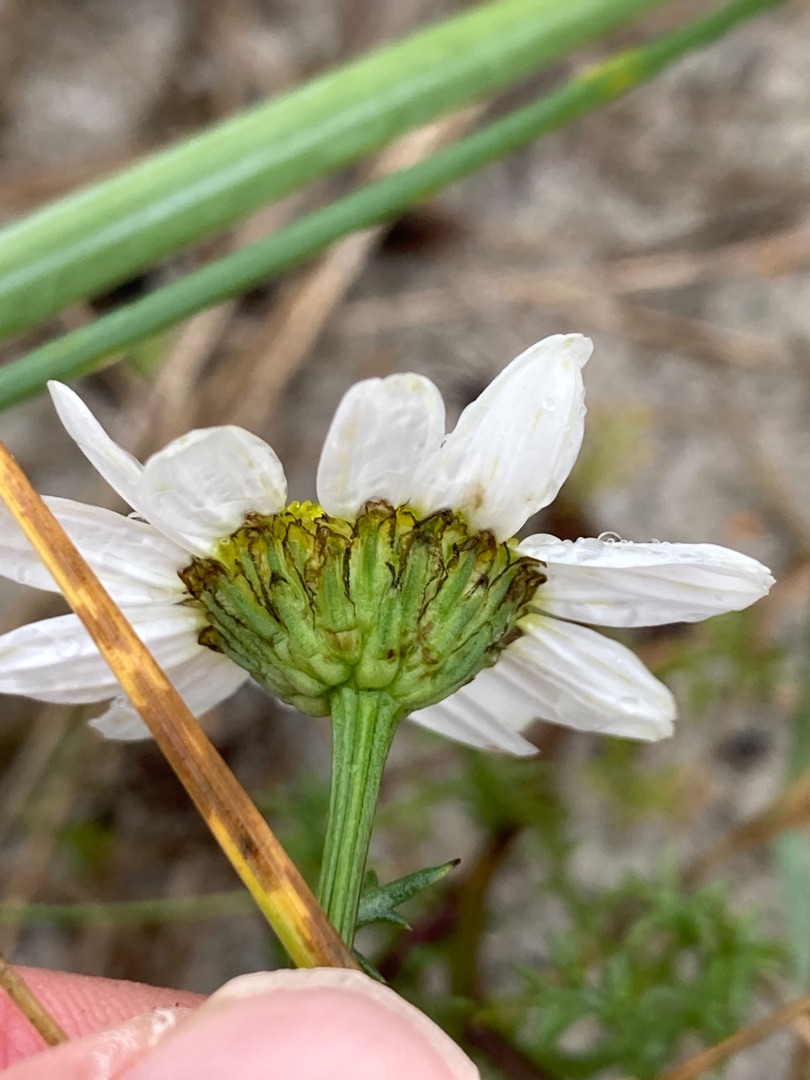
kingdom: Plantae
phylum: Tracheophyta
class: Magnoliopsida
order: Asterales
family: Asteraceae
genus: Tripleurospermum
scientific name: Tripleurospermum maritimum
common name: Strand-kamille
